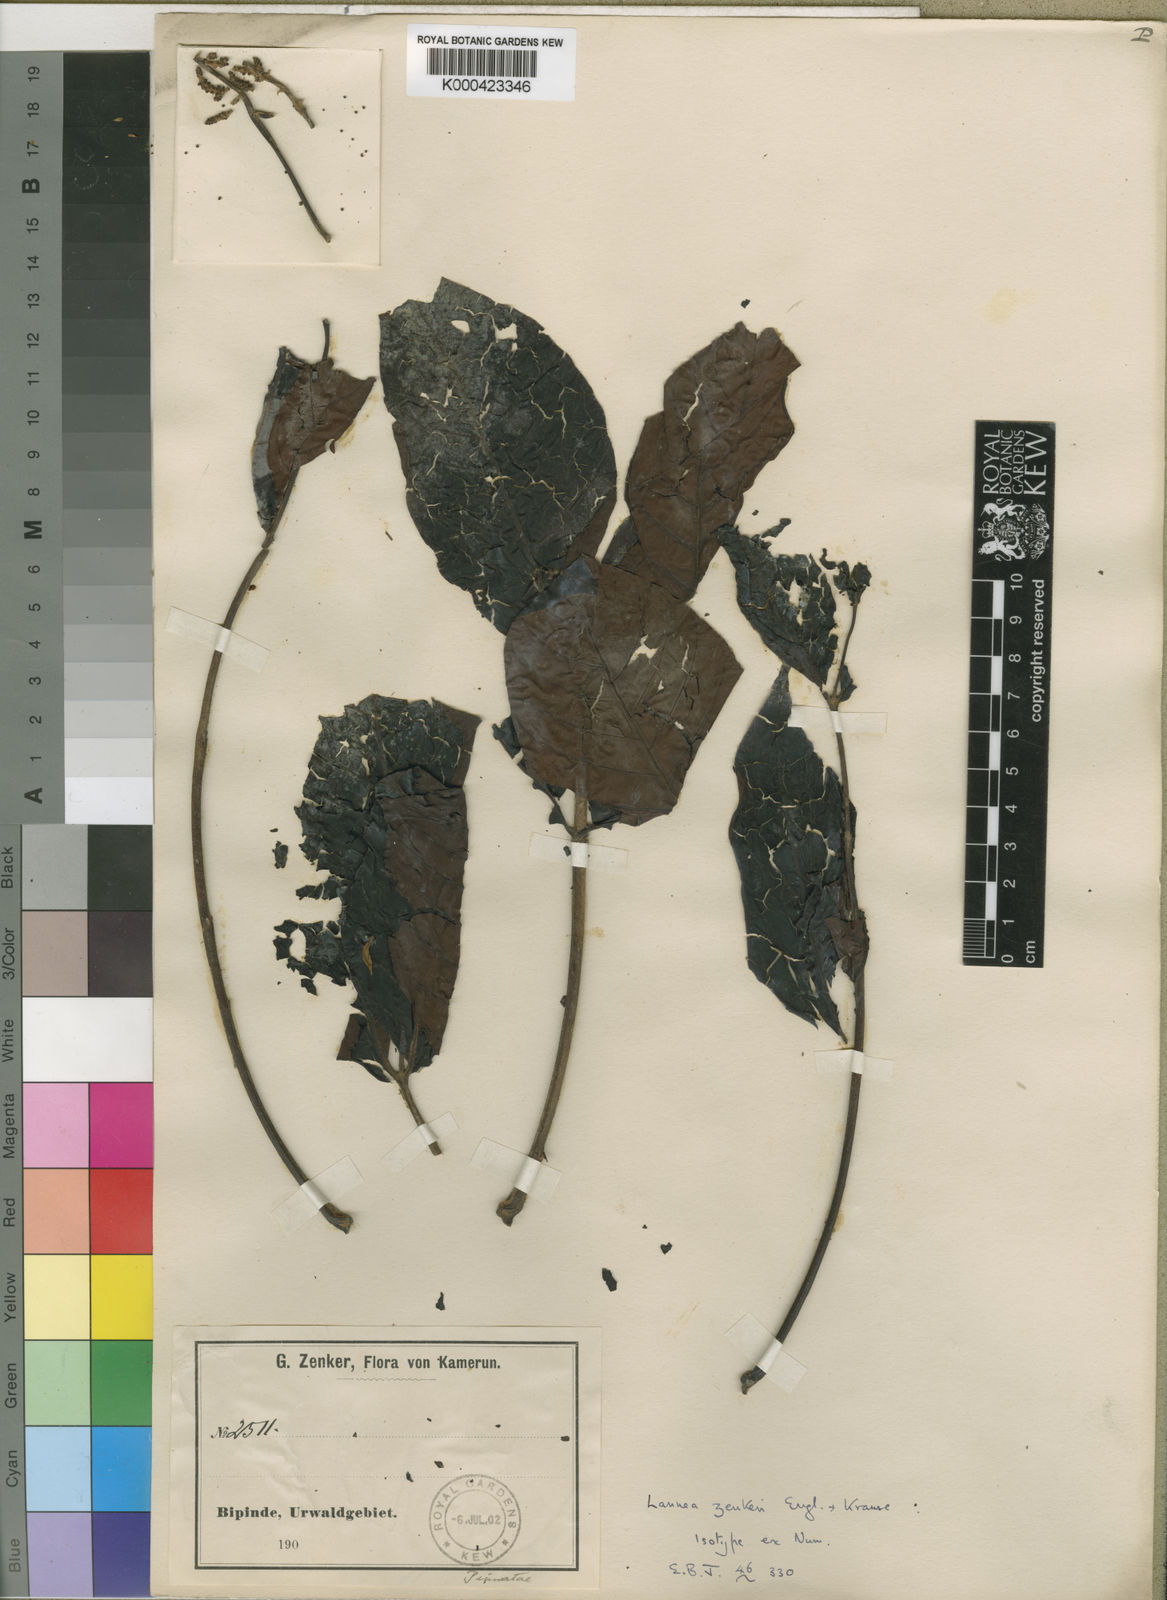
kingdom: Plantae
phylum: Tracheophyta
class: Magnoliopsida
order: Sapindales
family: Anacardiaceae
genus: Lannea
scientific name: Lannea zenkeri
